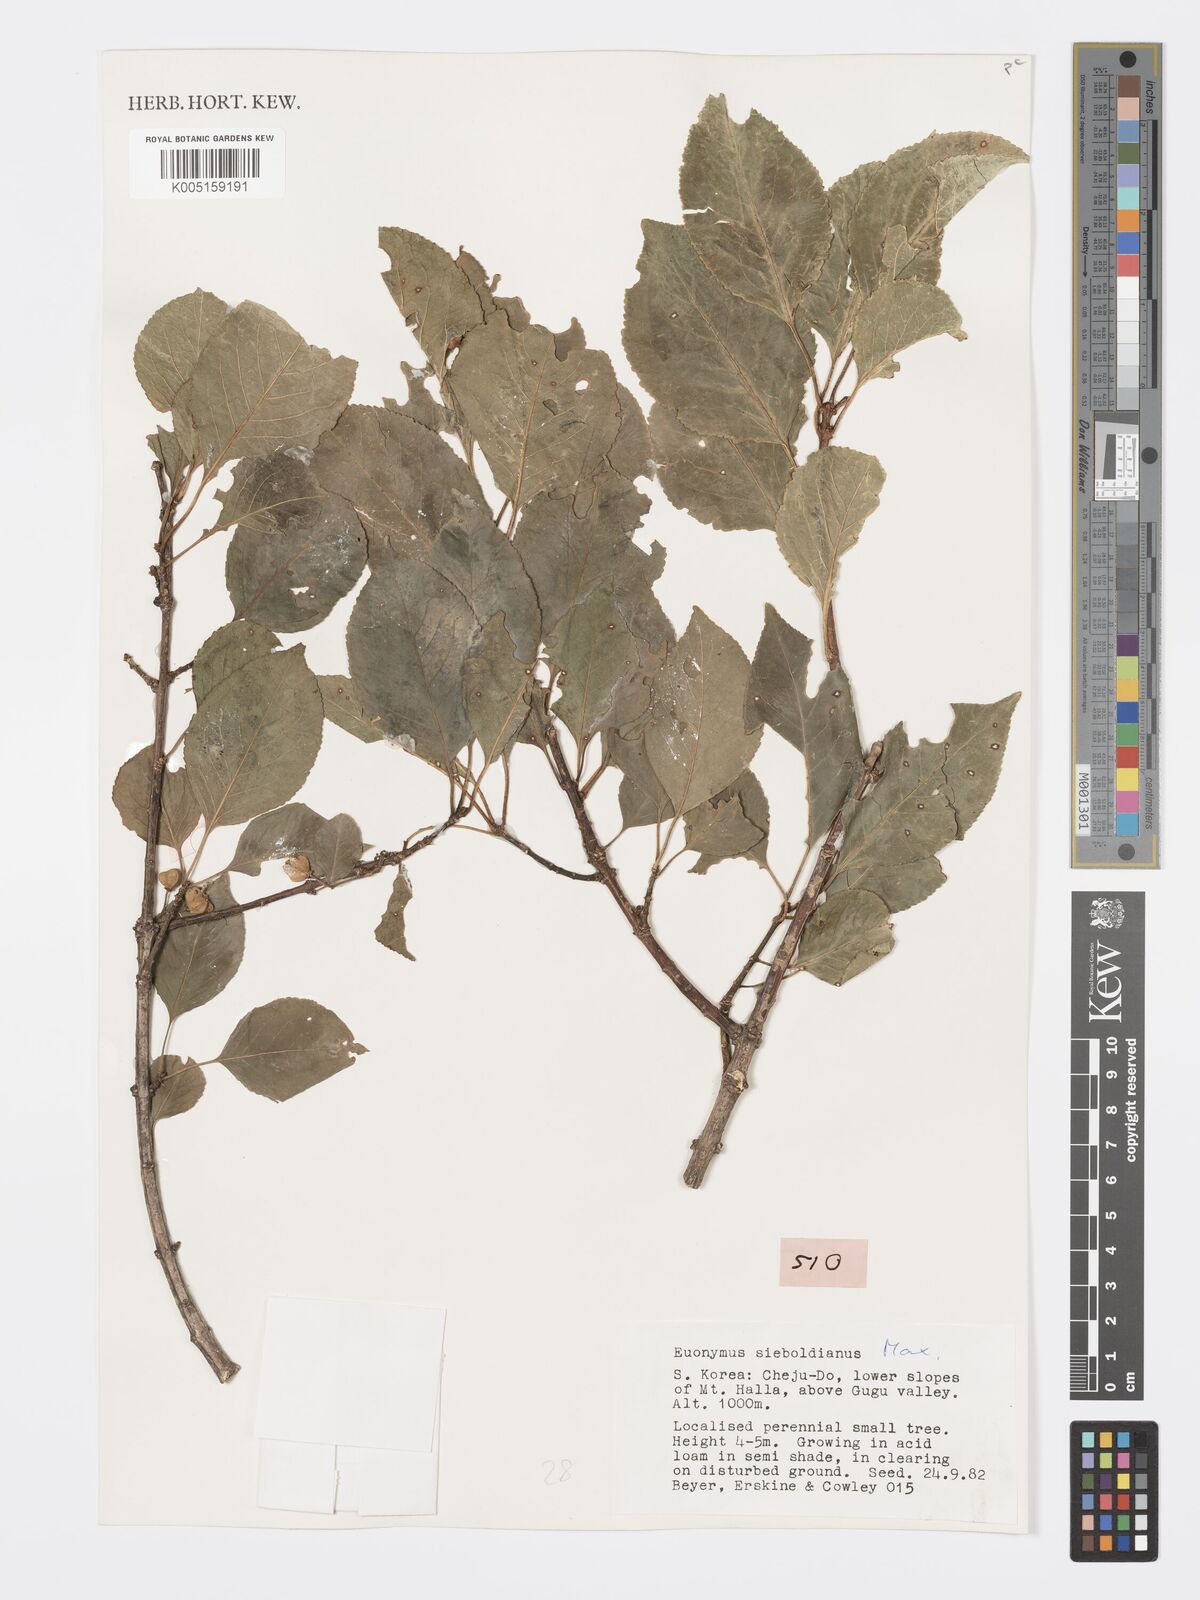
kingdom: Plantae
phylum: Tracheophyta
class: Magnoliopsida
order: Celastrales
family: Celastraceae
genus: Euonymus
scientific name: Euonymus hamiltonianus
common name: Hamilton's spindletree
